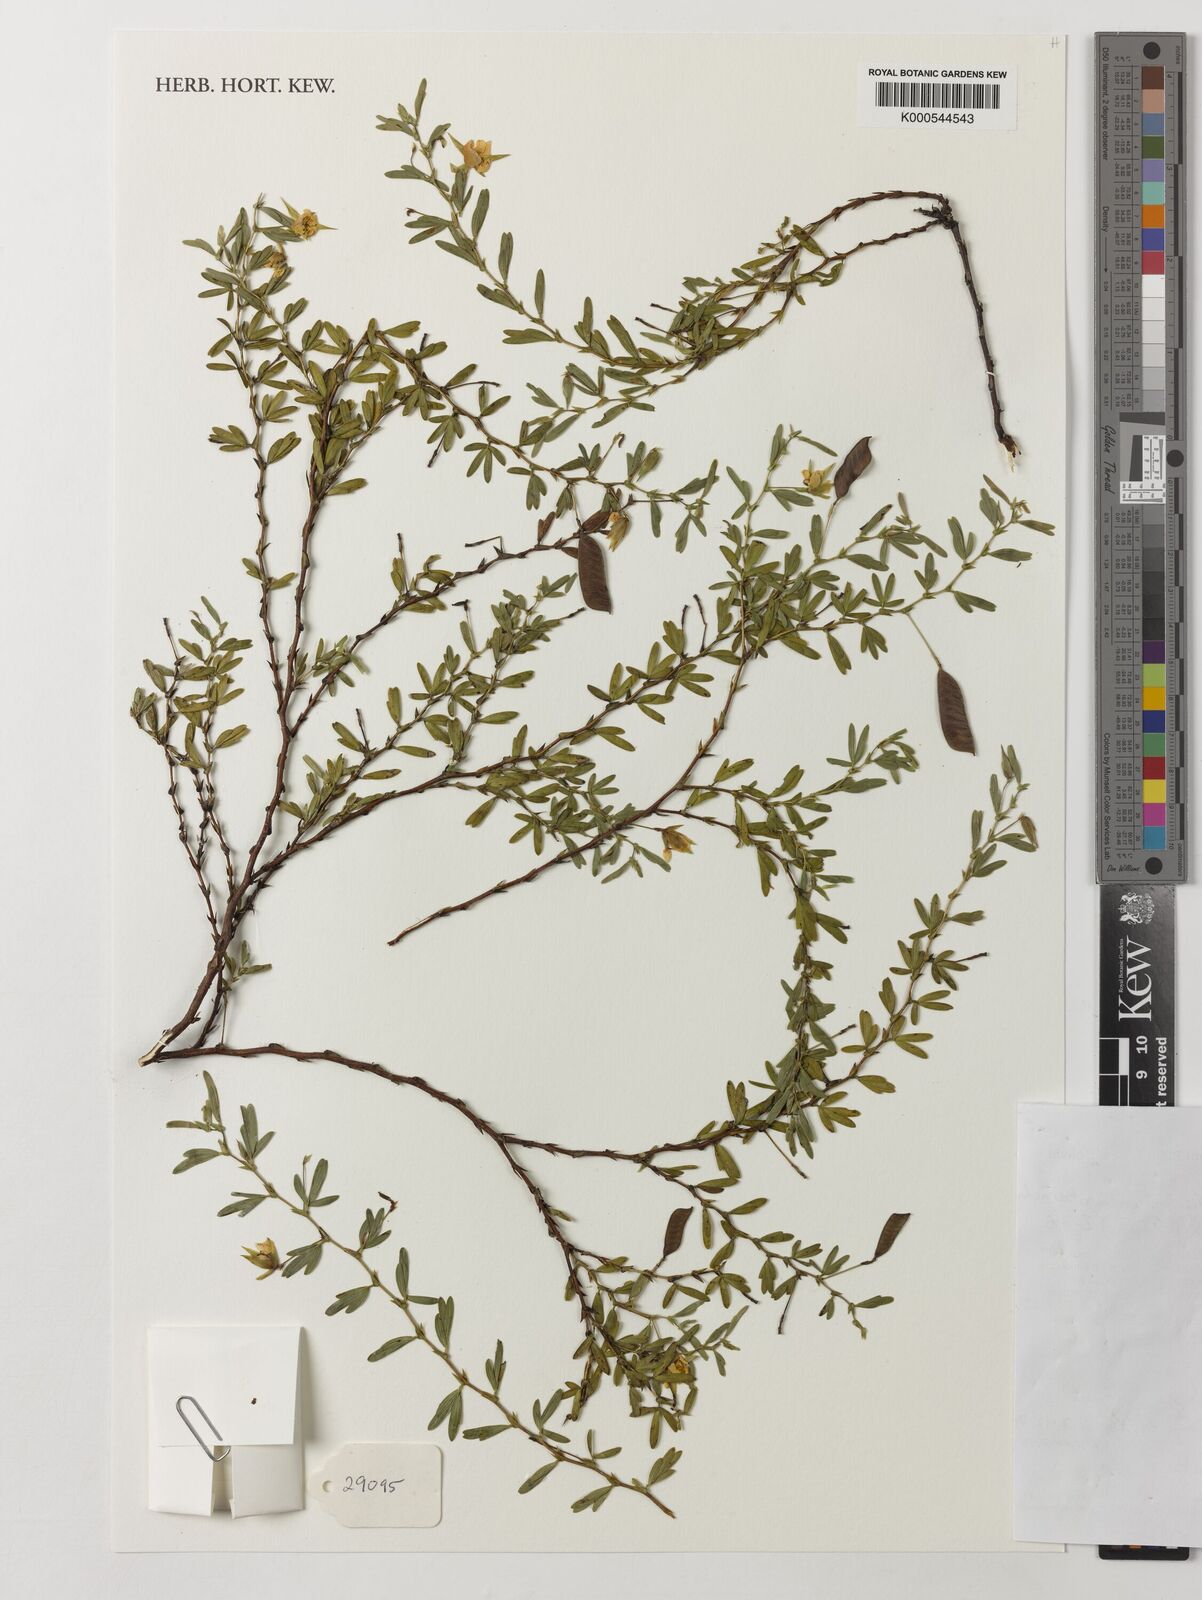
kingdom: Plantae
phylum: Tracheophyta
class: Magnoliopsida
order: Fabales
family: Fabaceae
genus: Chamaecrista
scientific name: Chamaecrista ramosa
